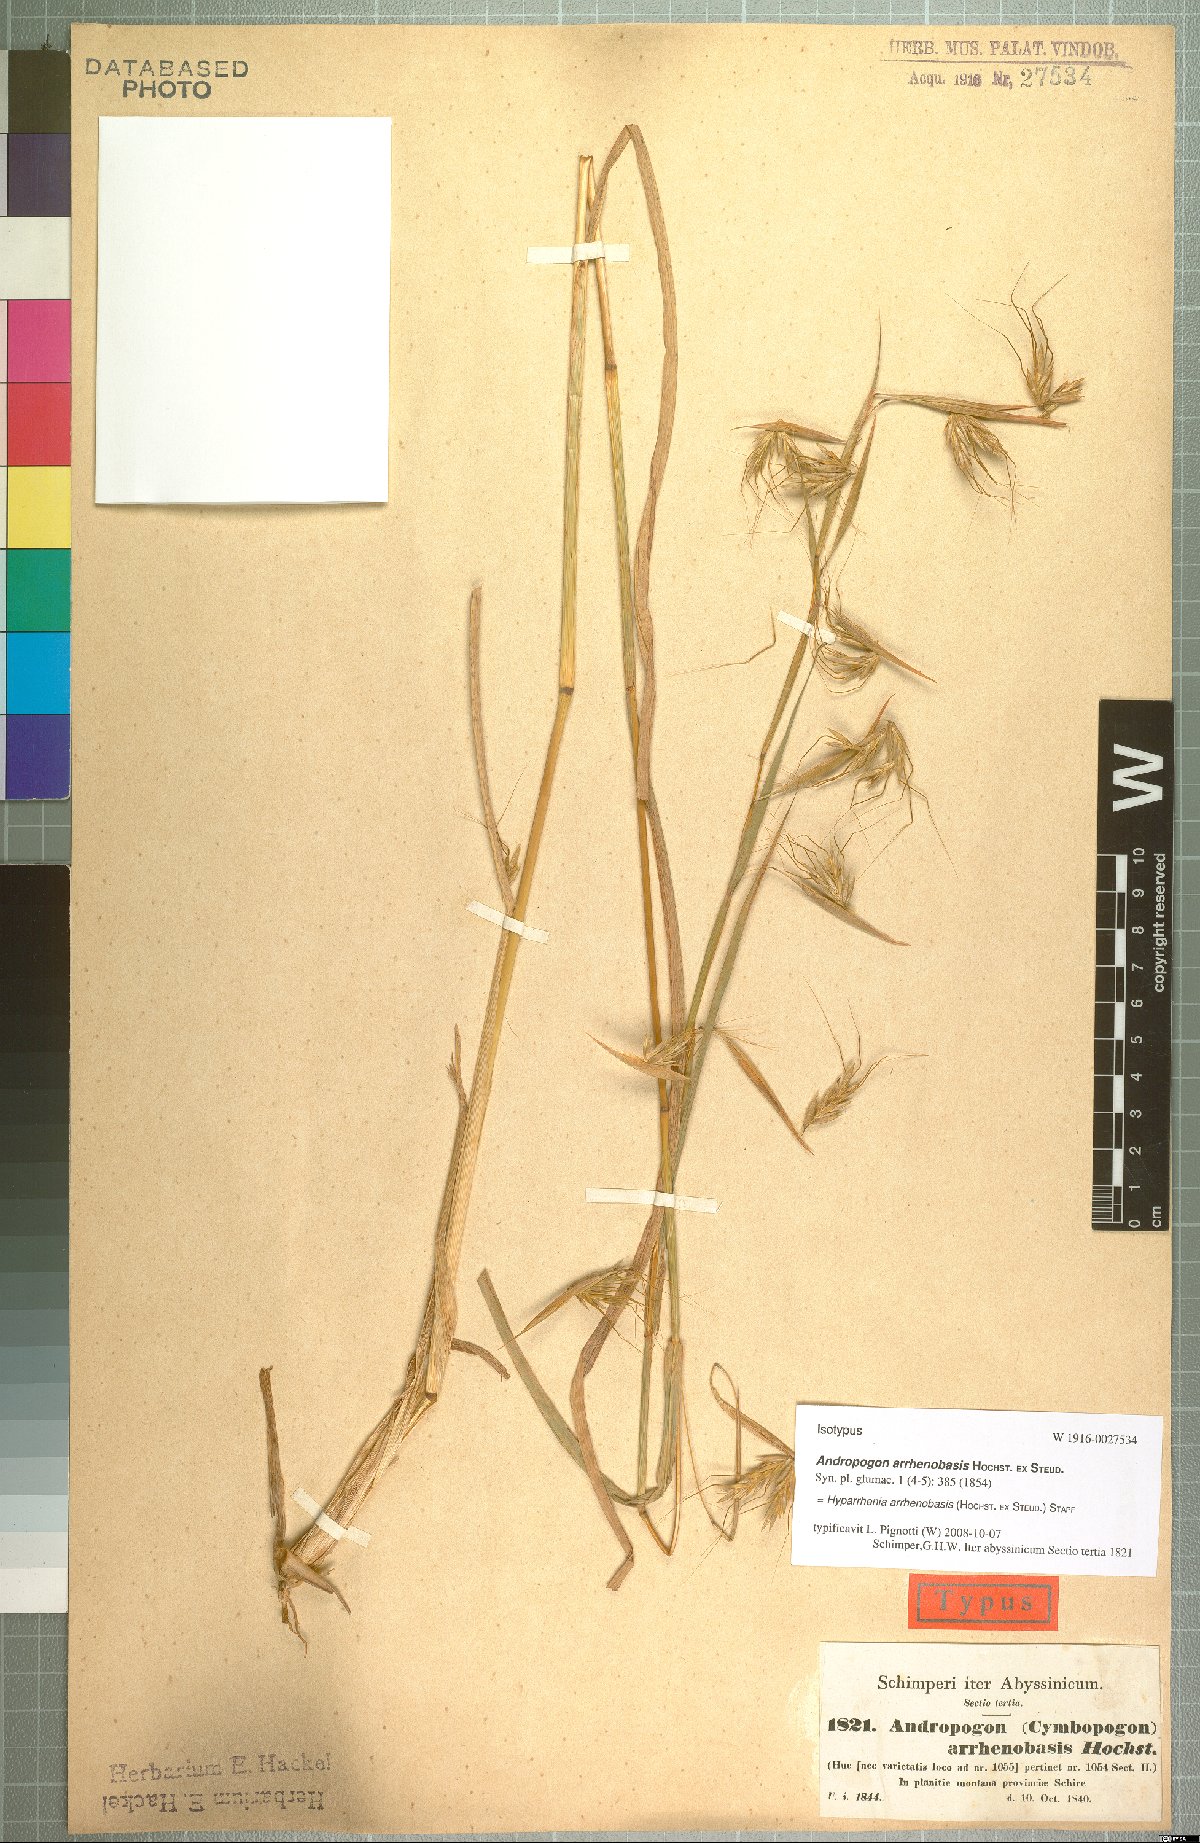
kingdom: Plantae
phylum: Tracheophyta
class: Liliopsida
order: Poales
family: Poaceae
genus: Hyparrhenia
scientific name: Hyparrhenia arrhenobasis
